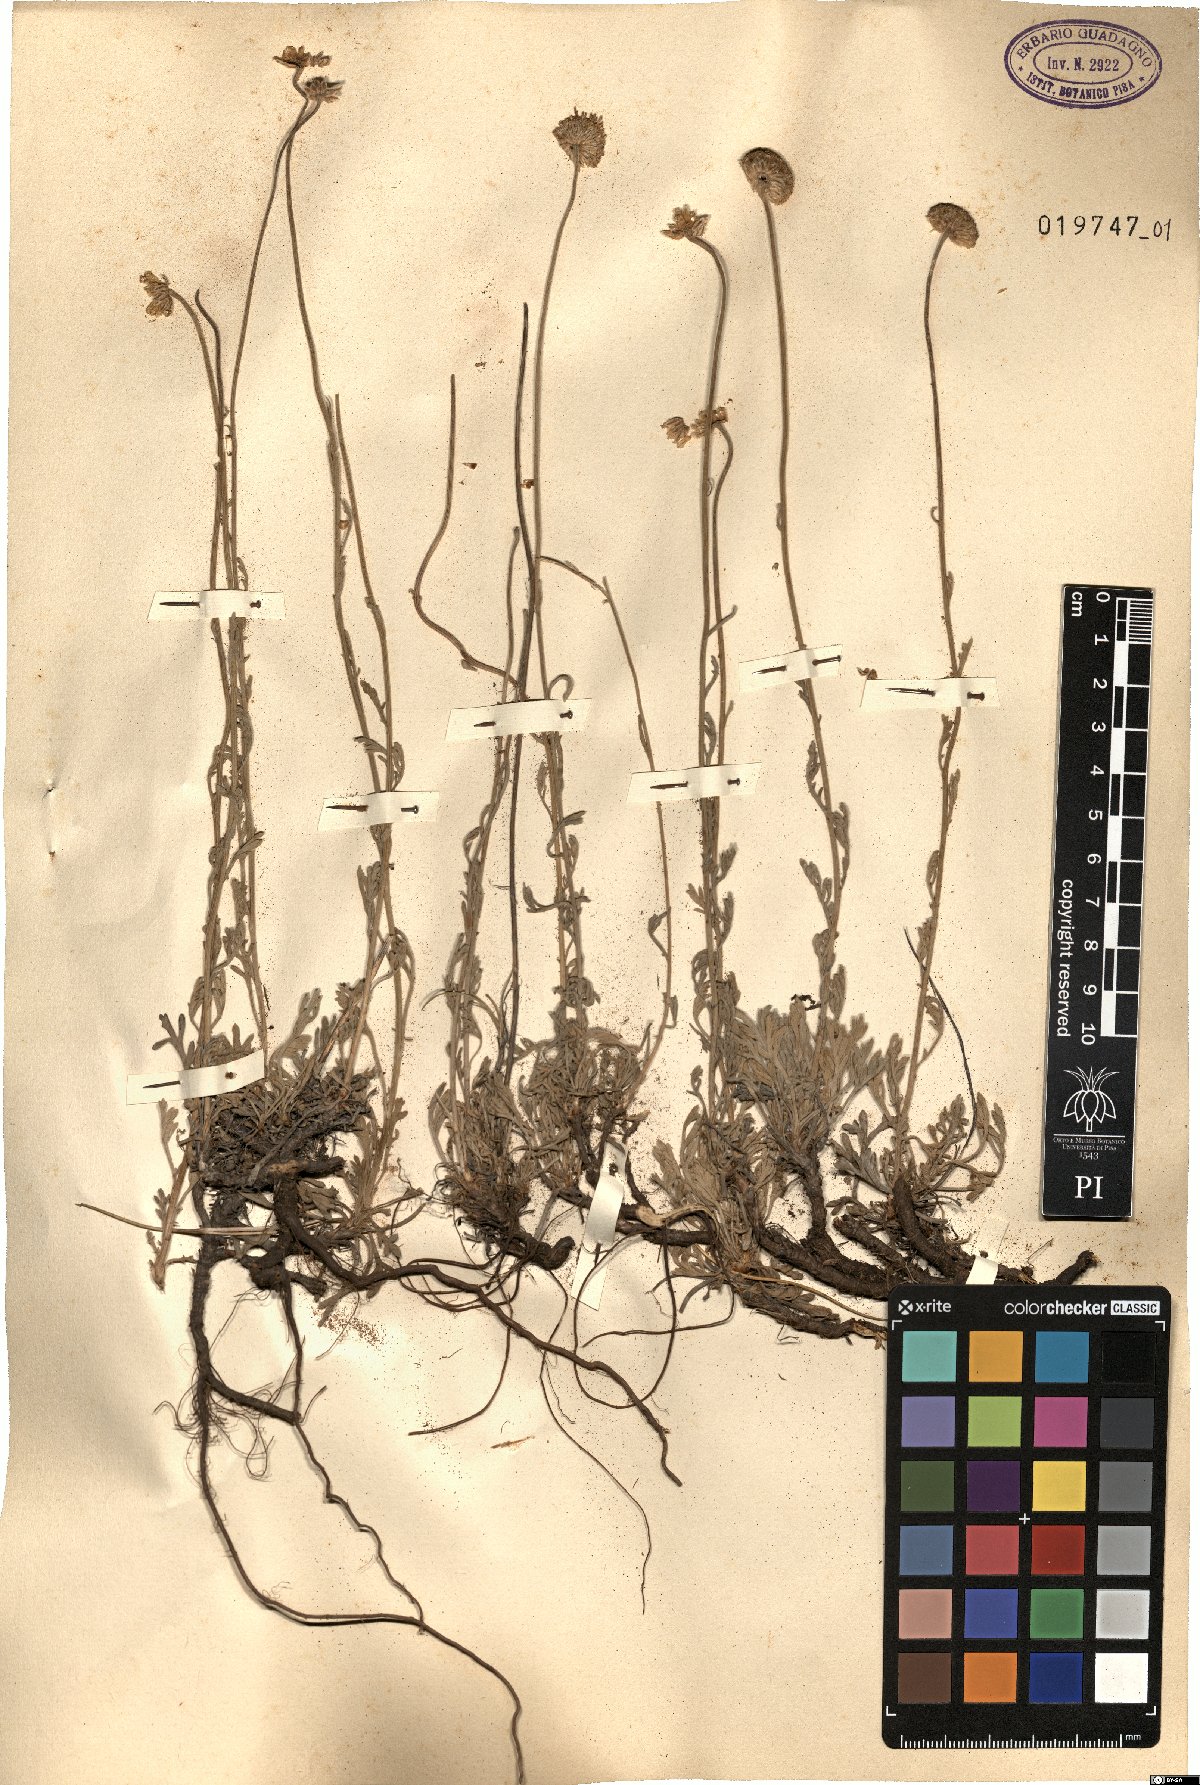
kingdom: Plantae
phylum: Tracheophyta
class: Magnoliopsida
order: Asterales
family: Asteraceae
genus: Anthemis
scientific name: Anthemis cretica
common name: Mountain dog-daisy
